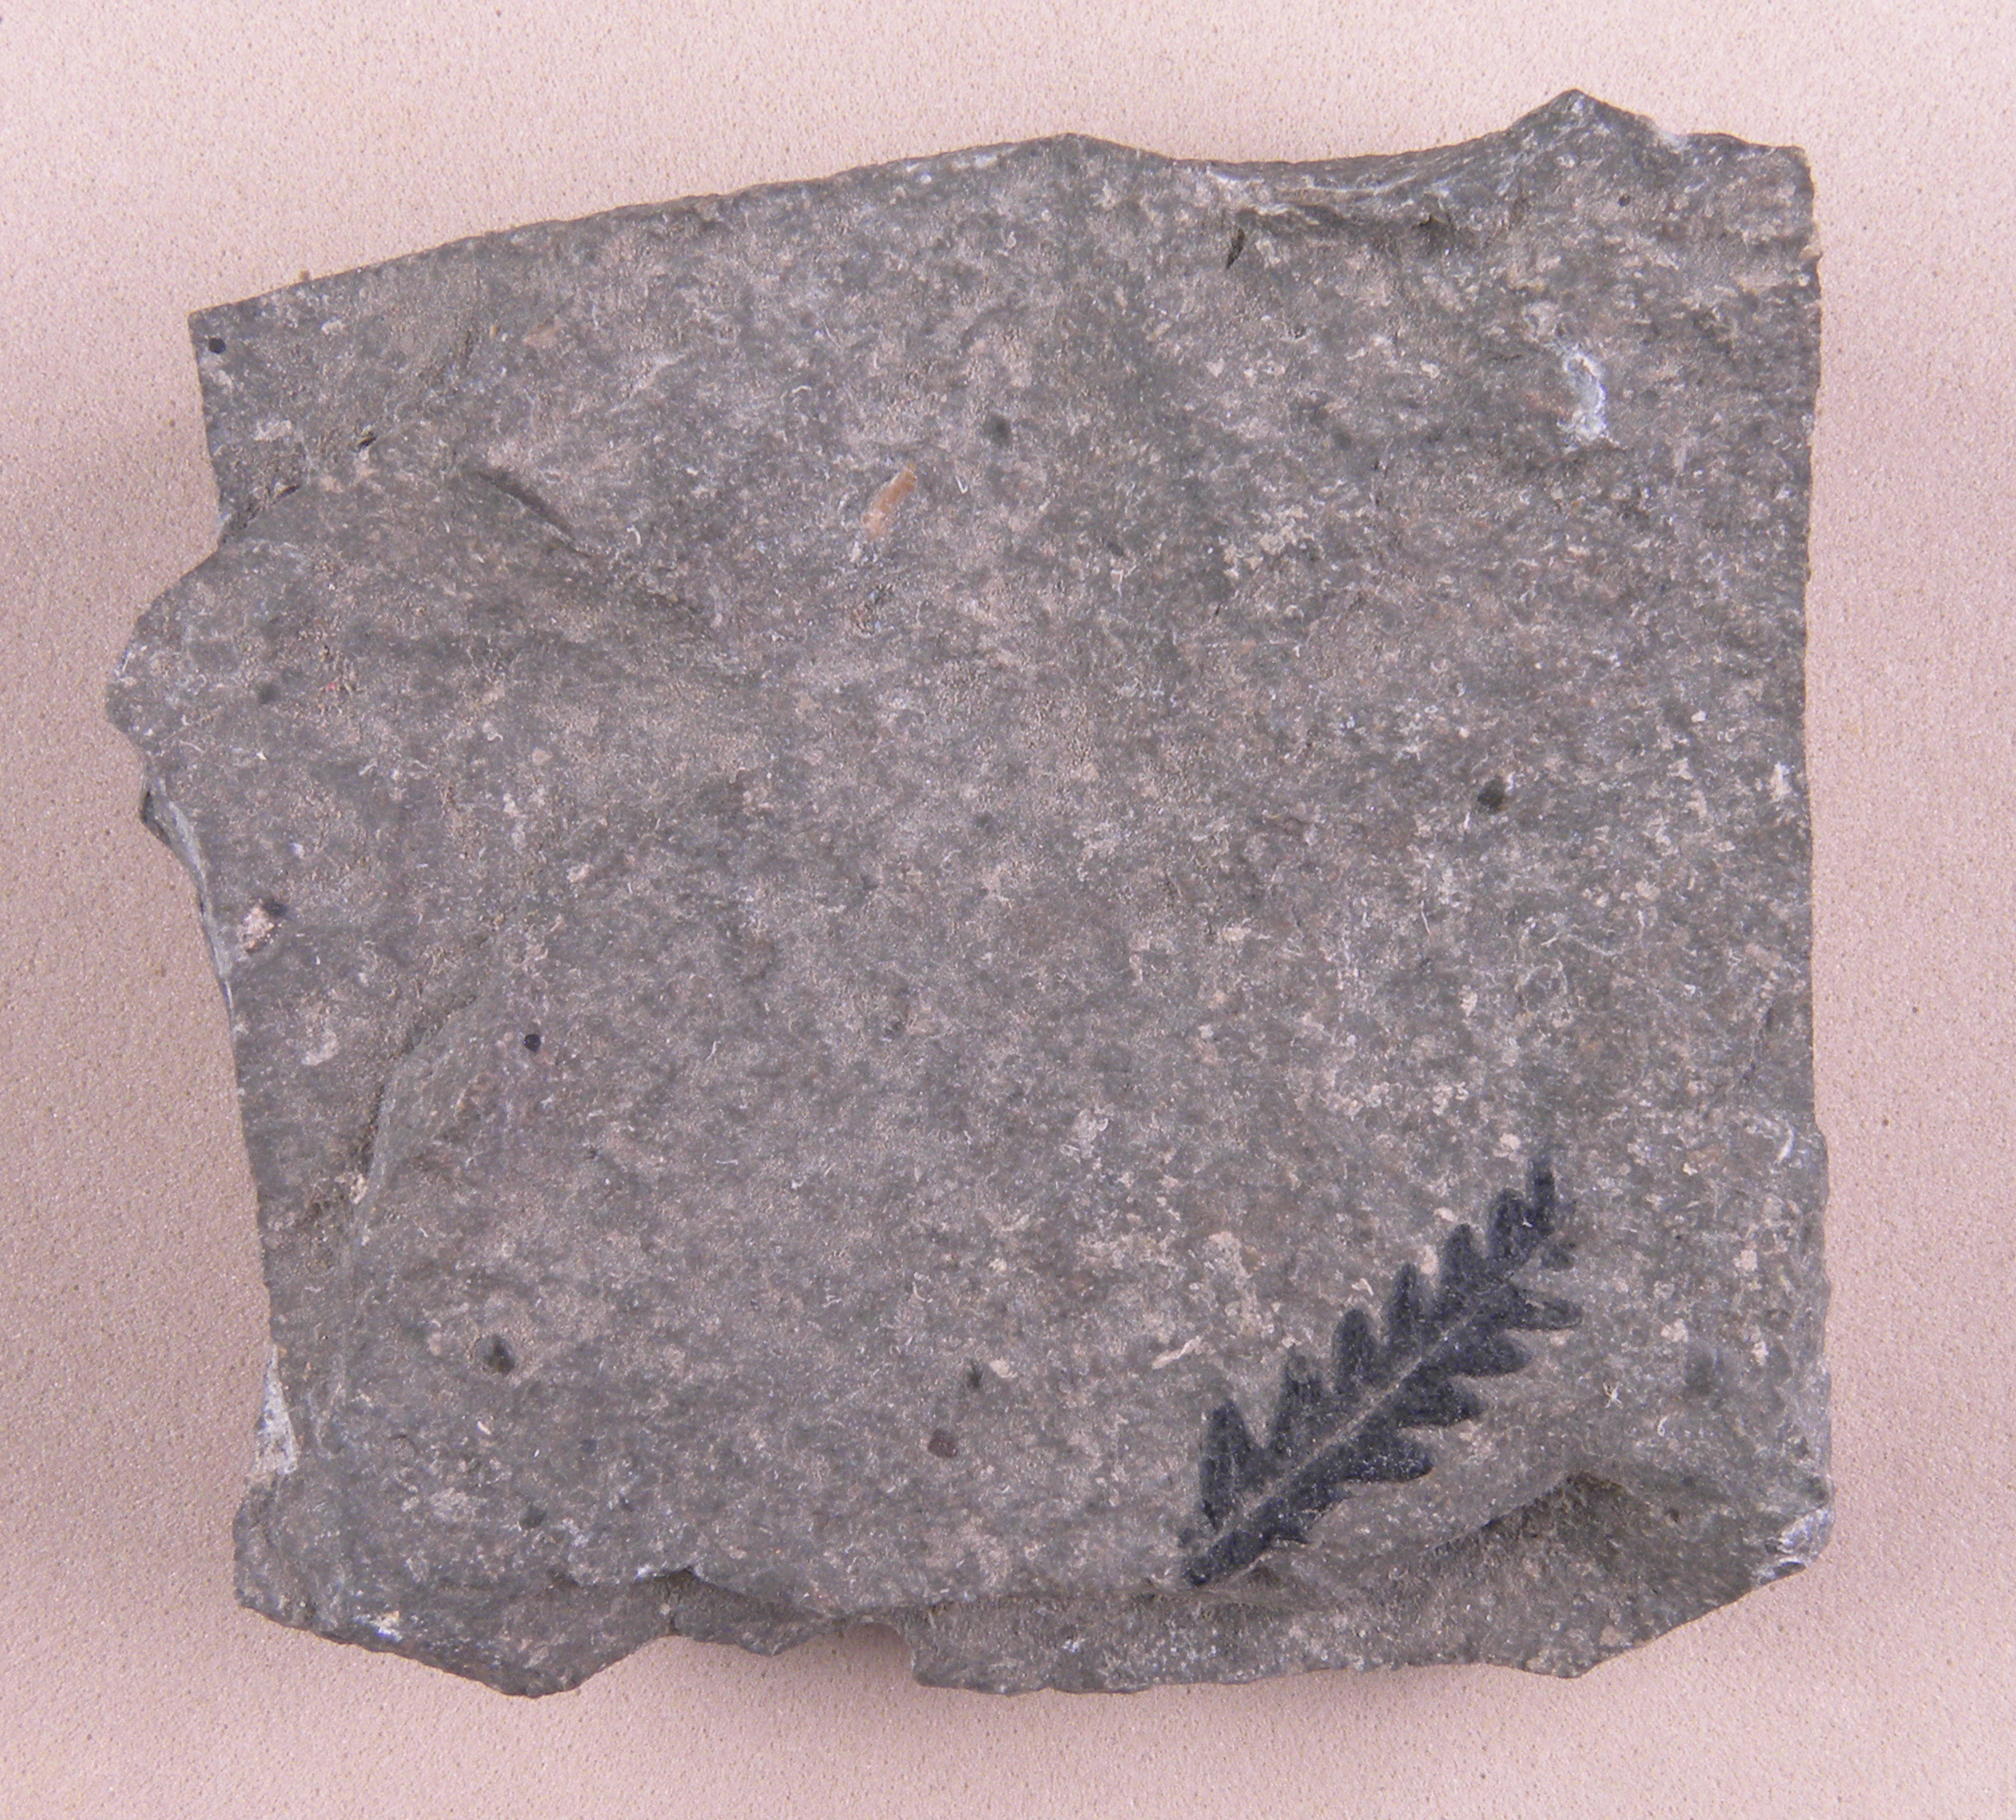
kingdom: Plantae
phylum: Tracheophyta
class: Polypodiopsida
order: Osmundales
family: Osmundaceae
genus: Cladophlebis
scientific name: Cladophlebis
